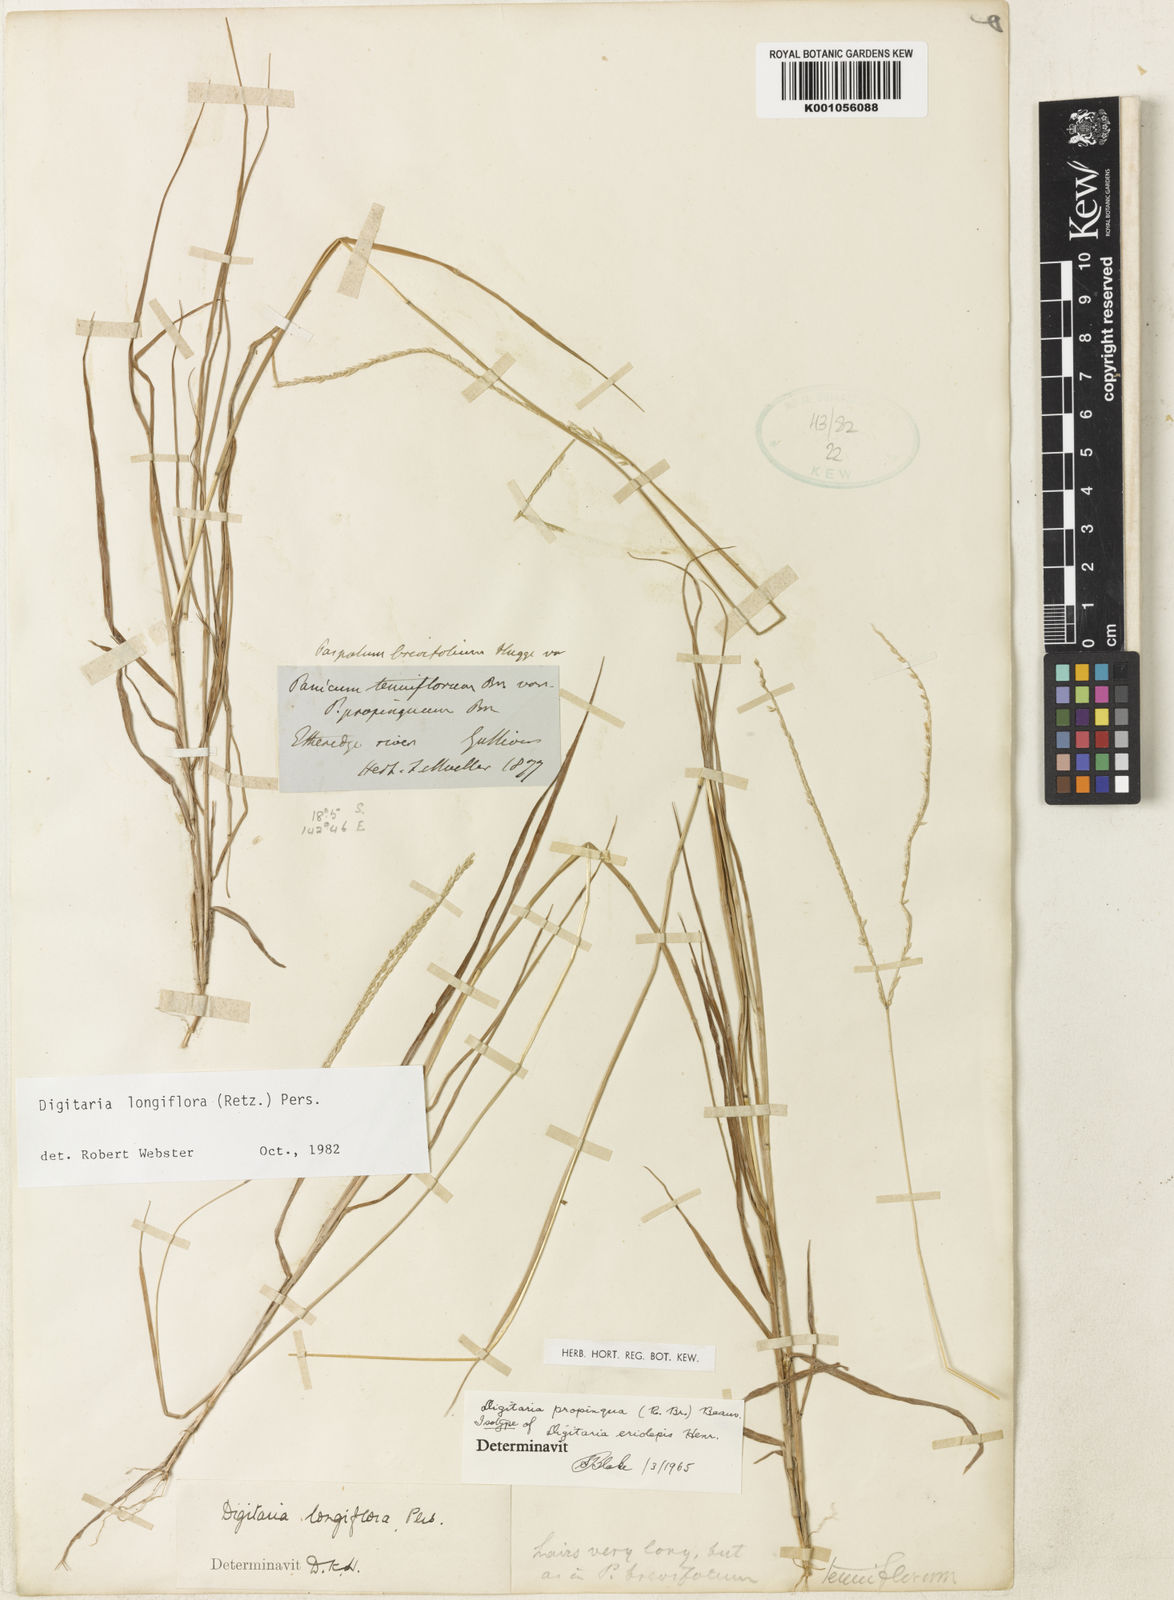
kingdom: Plantae
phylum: Tracheophyta
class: Liliopsida
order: Poales
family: Poaceae
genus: Digitaria
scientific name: Digitaria longiflora
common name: Wire crabgrass
